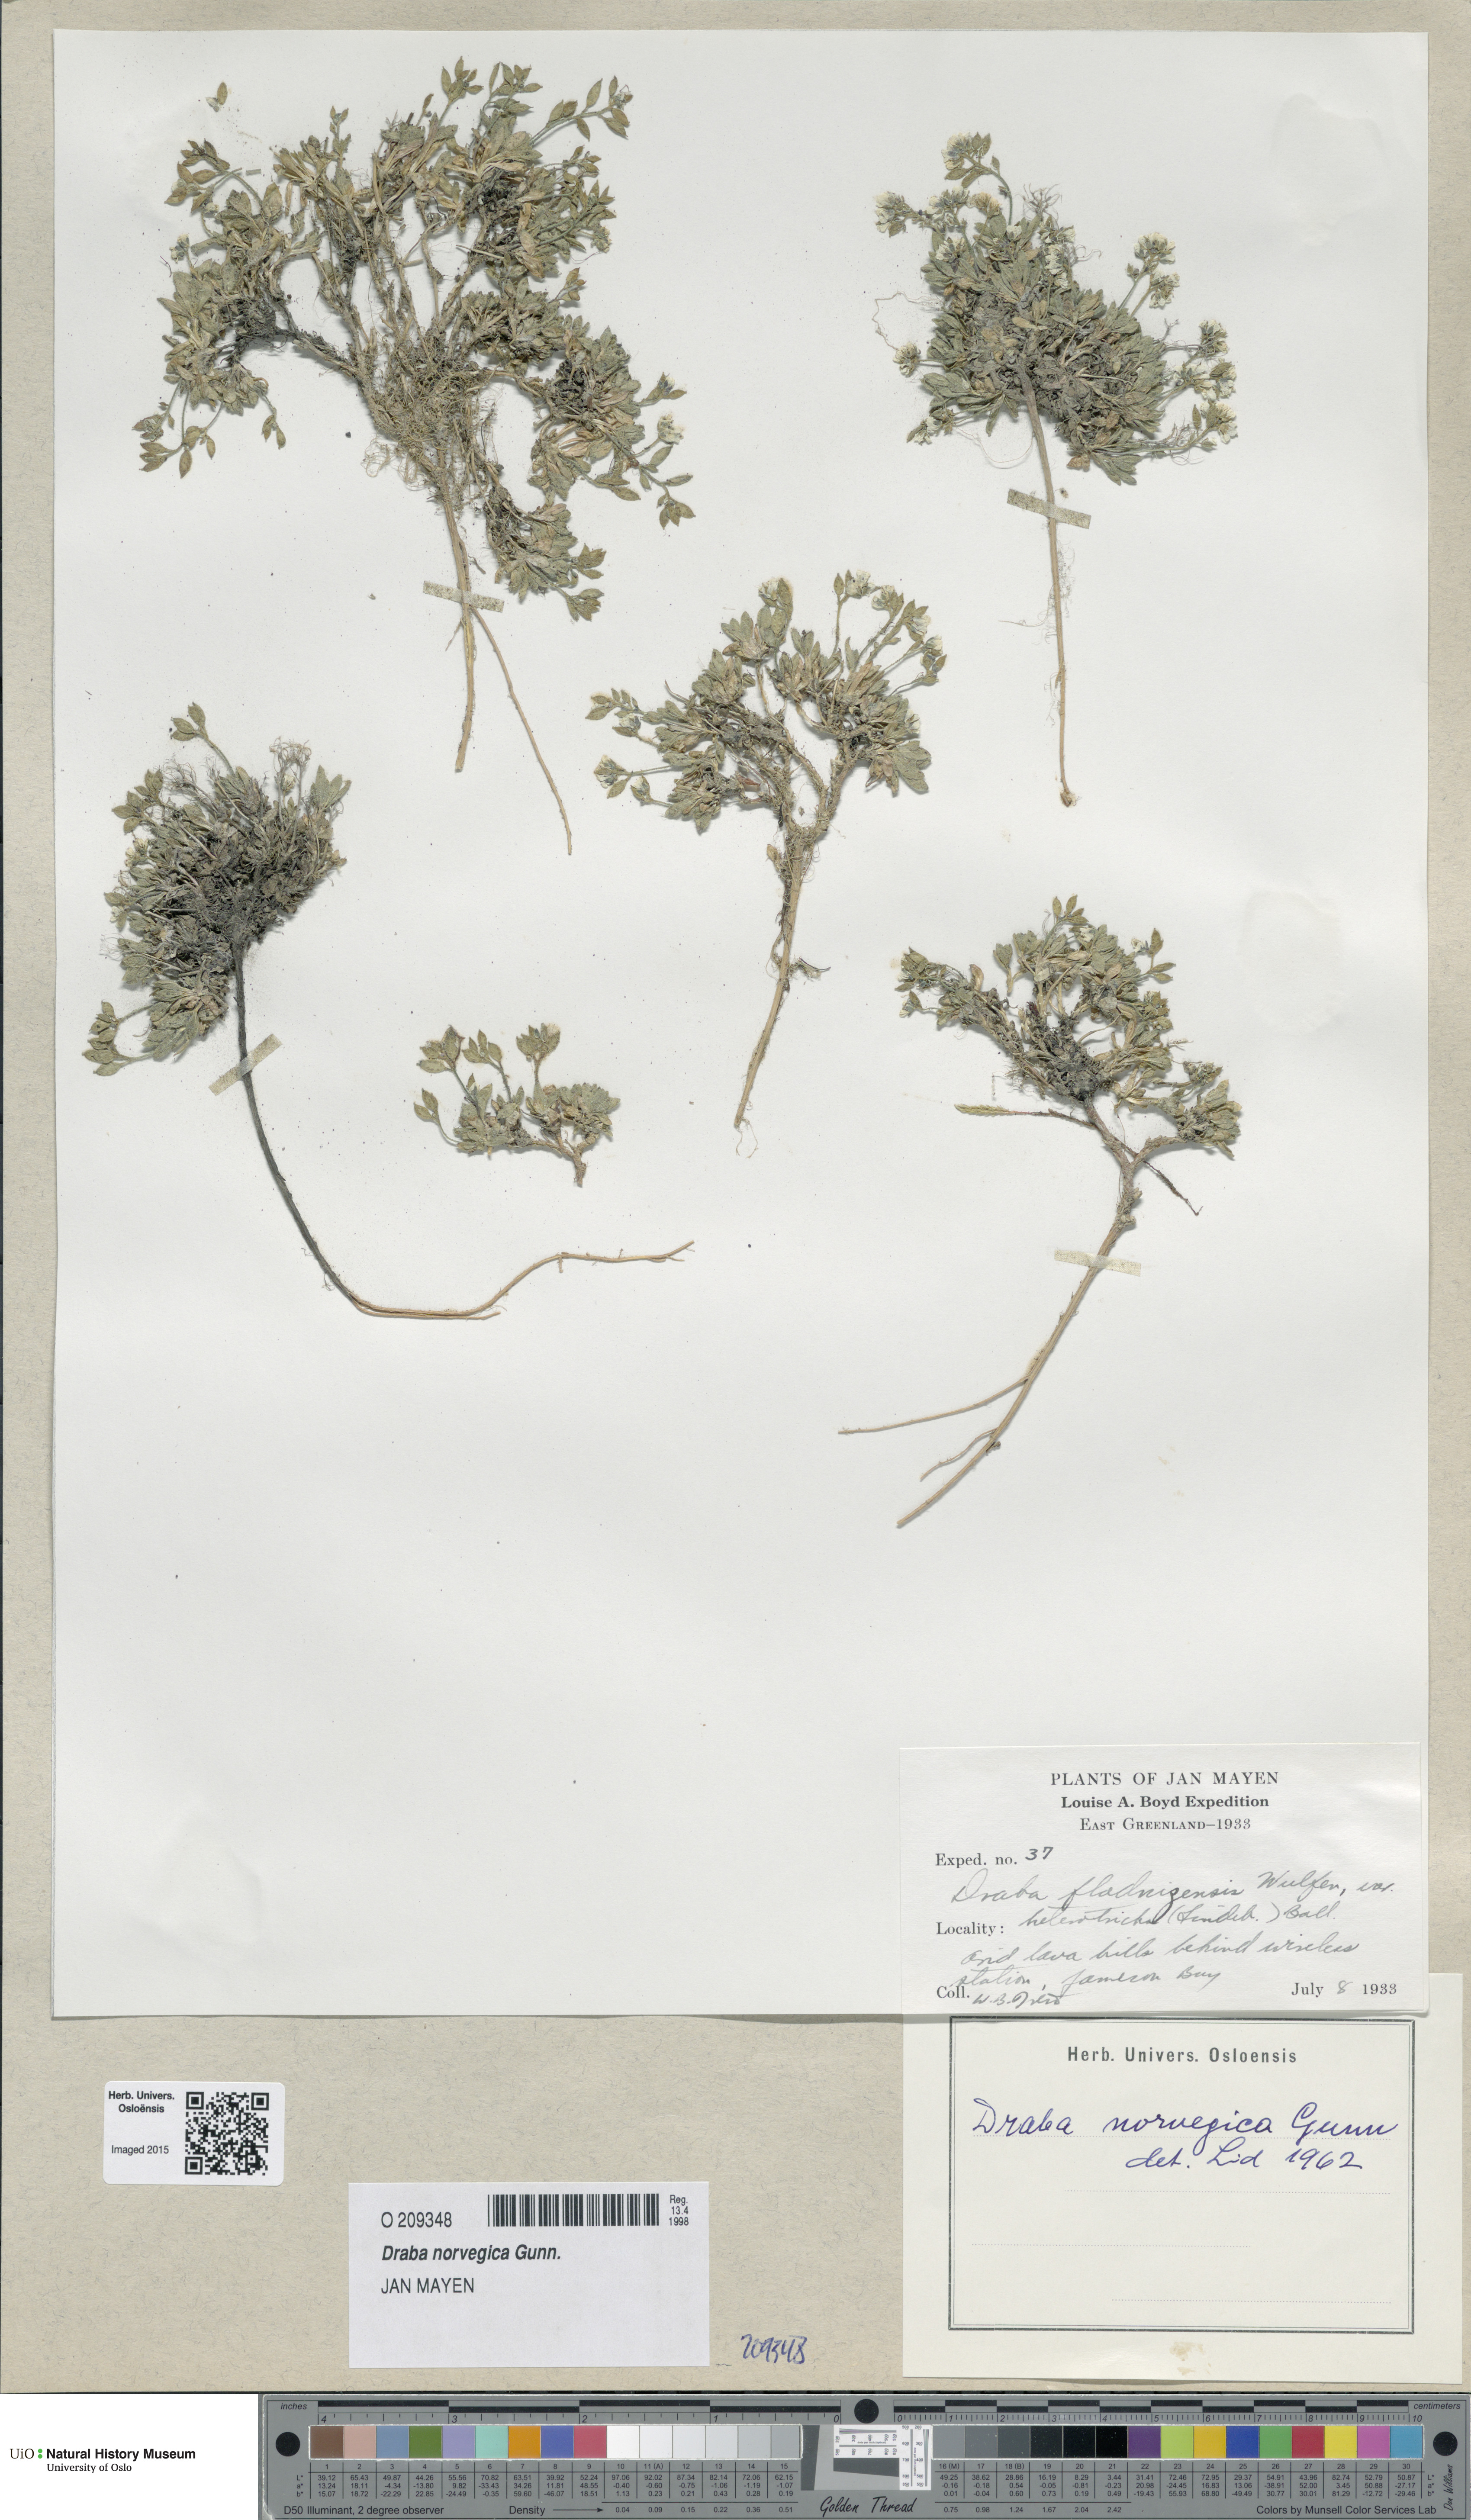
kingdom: Plantae
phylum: Tracheophyta
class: Magnoliopsida
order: Brassicales
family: Brassicaceae
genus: Draba
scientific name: Draba norvegica
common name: Rock whitlowgrass
